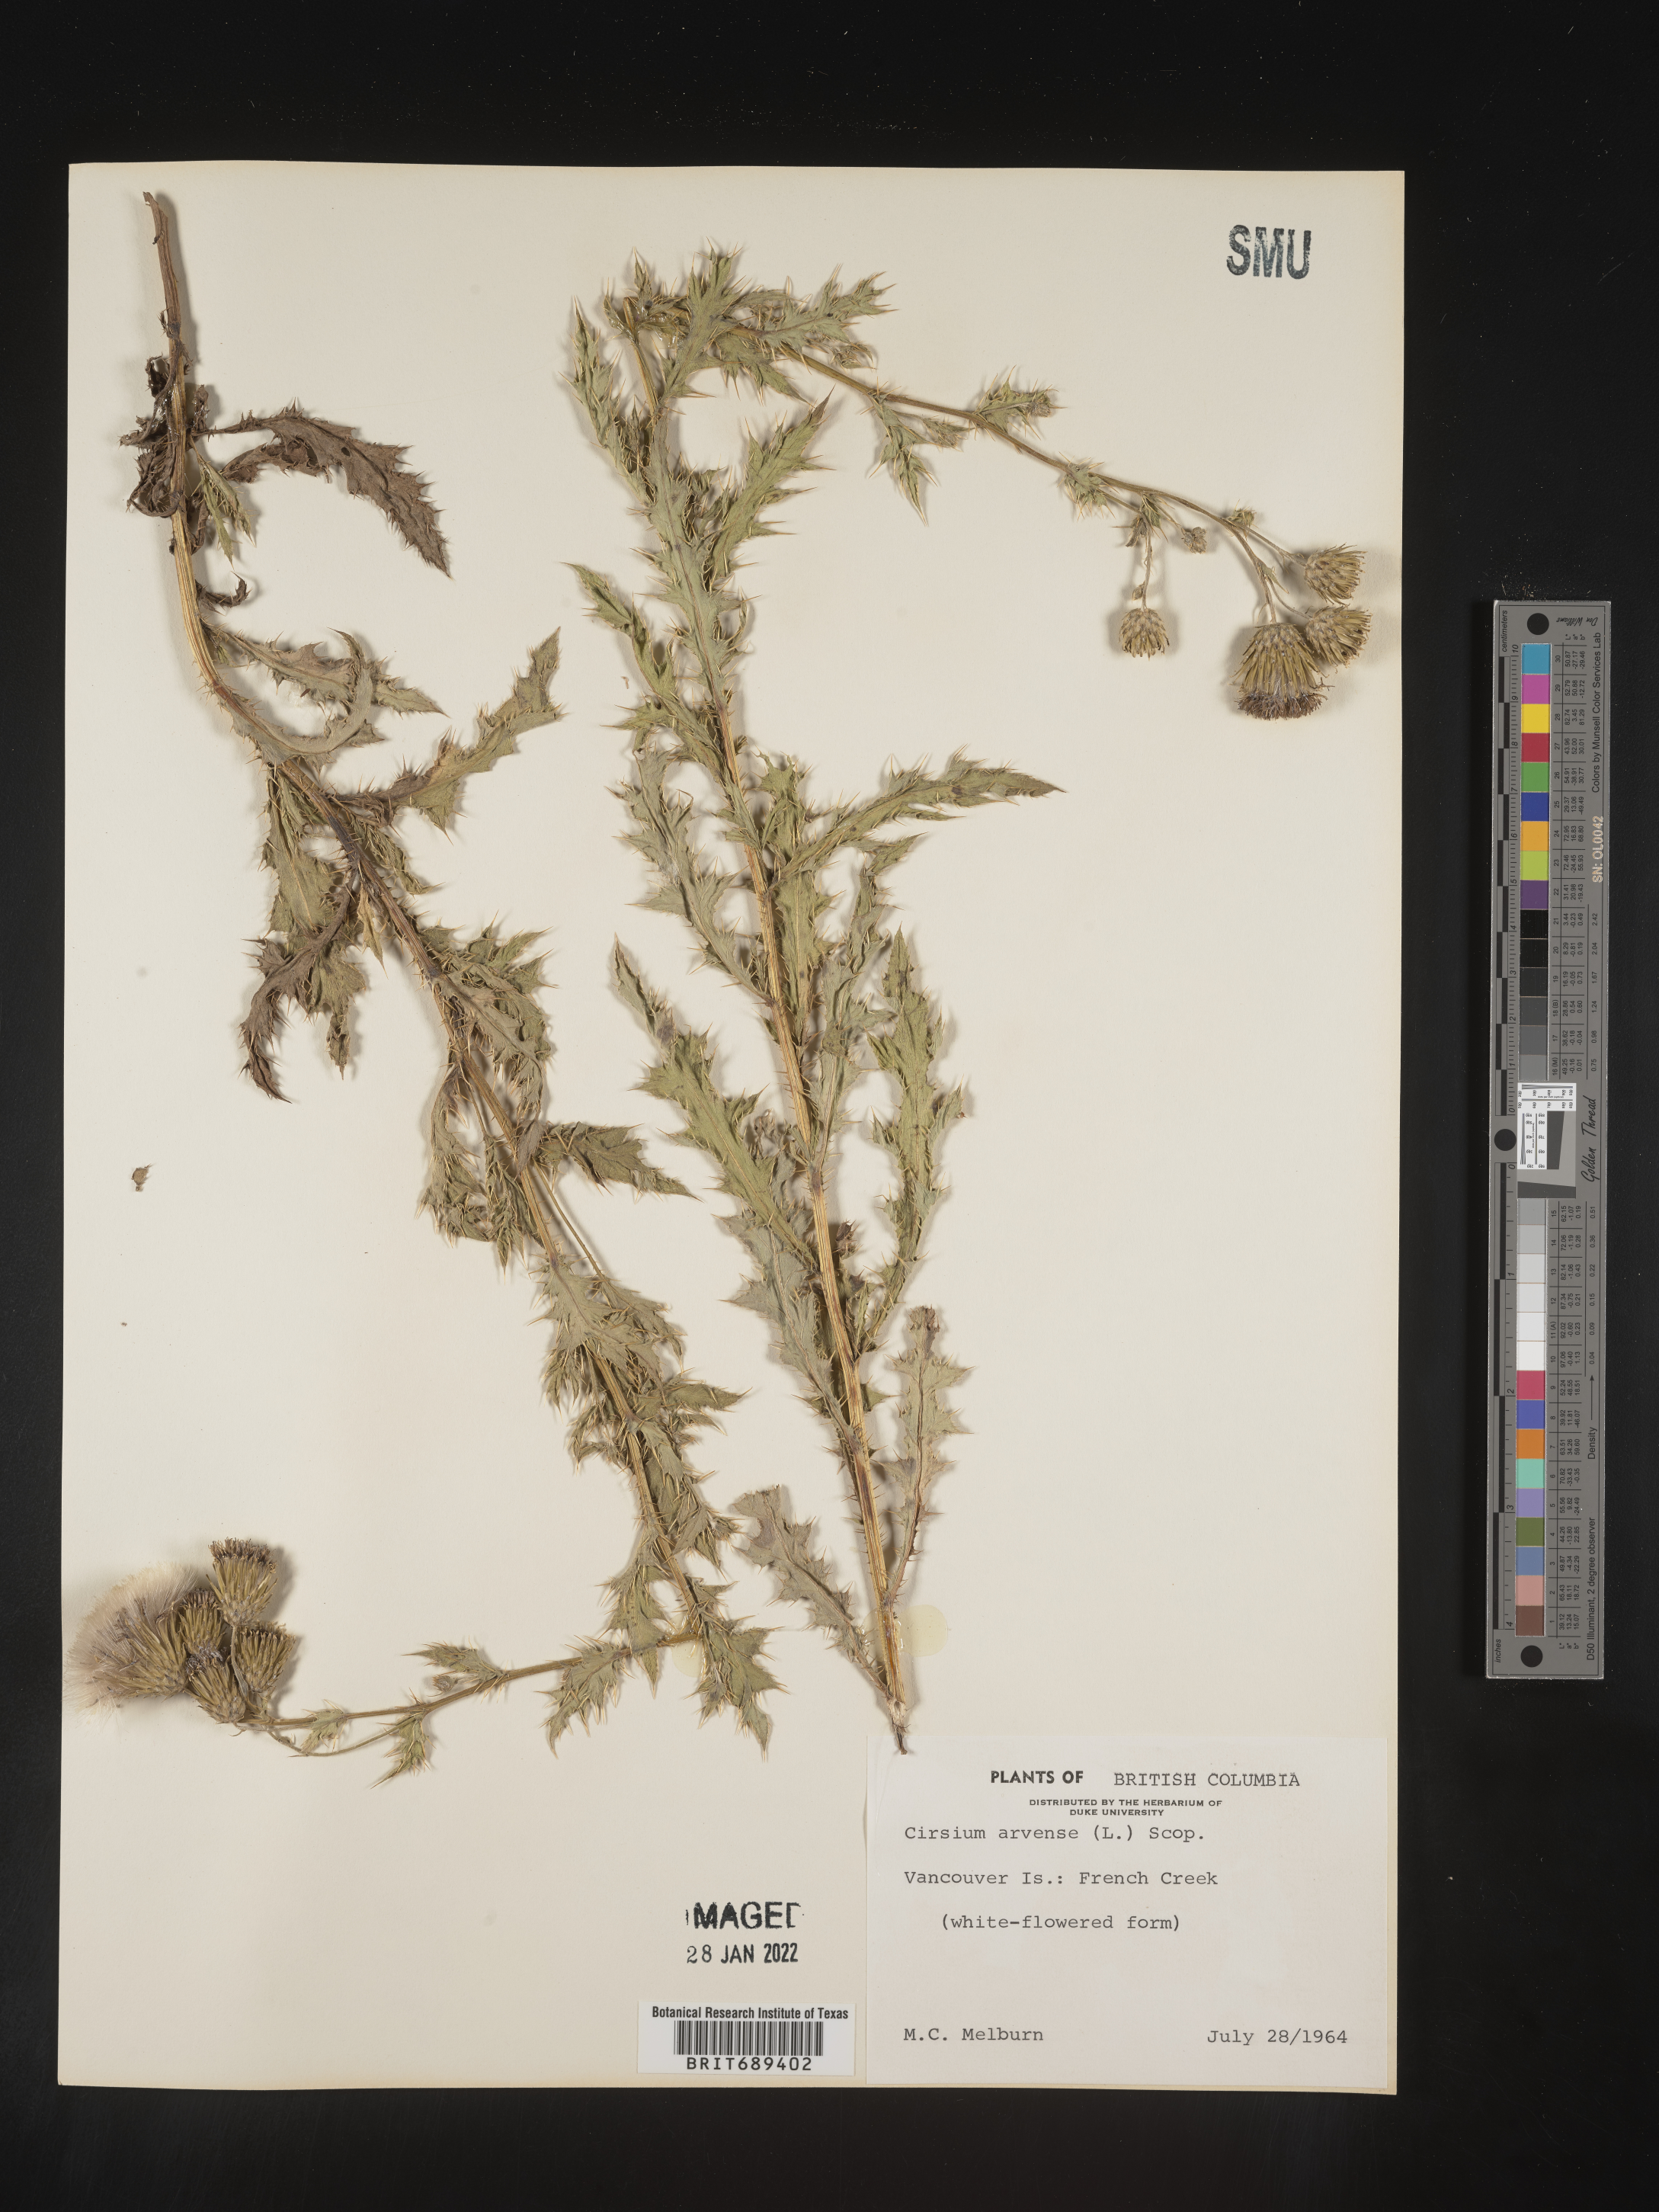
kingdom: Plantae
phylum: Tracheophyta
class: Magnoliopsida
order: Asterales
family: Asteraceae
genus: Cirsium
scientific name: Cirsium arvense
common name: Creeping thistle
